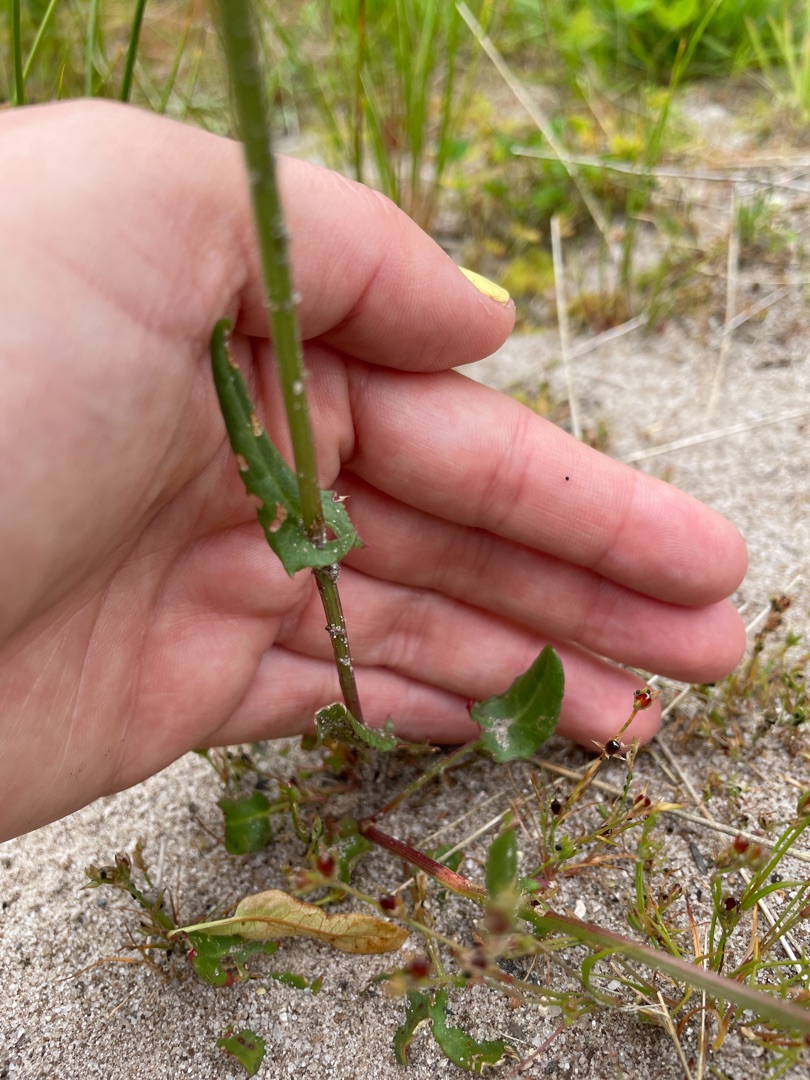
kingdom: Plantae
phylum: Tracheophyta
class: Magnoliopsida
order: Caryophyllales
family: Polygonaceae
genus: Rumex
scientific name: Rumex acetosa
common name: Almindelig syre
